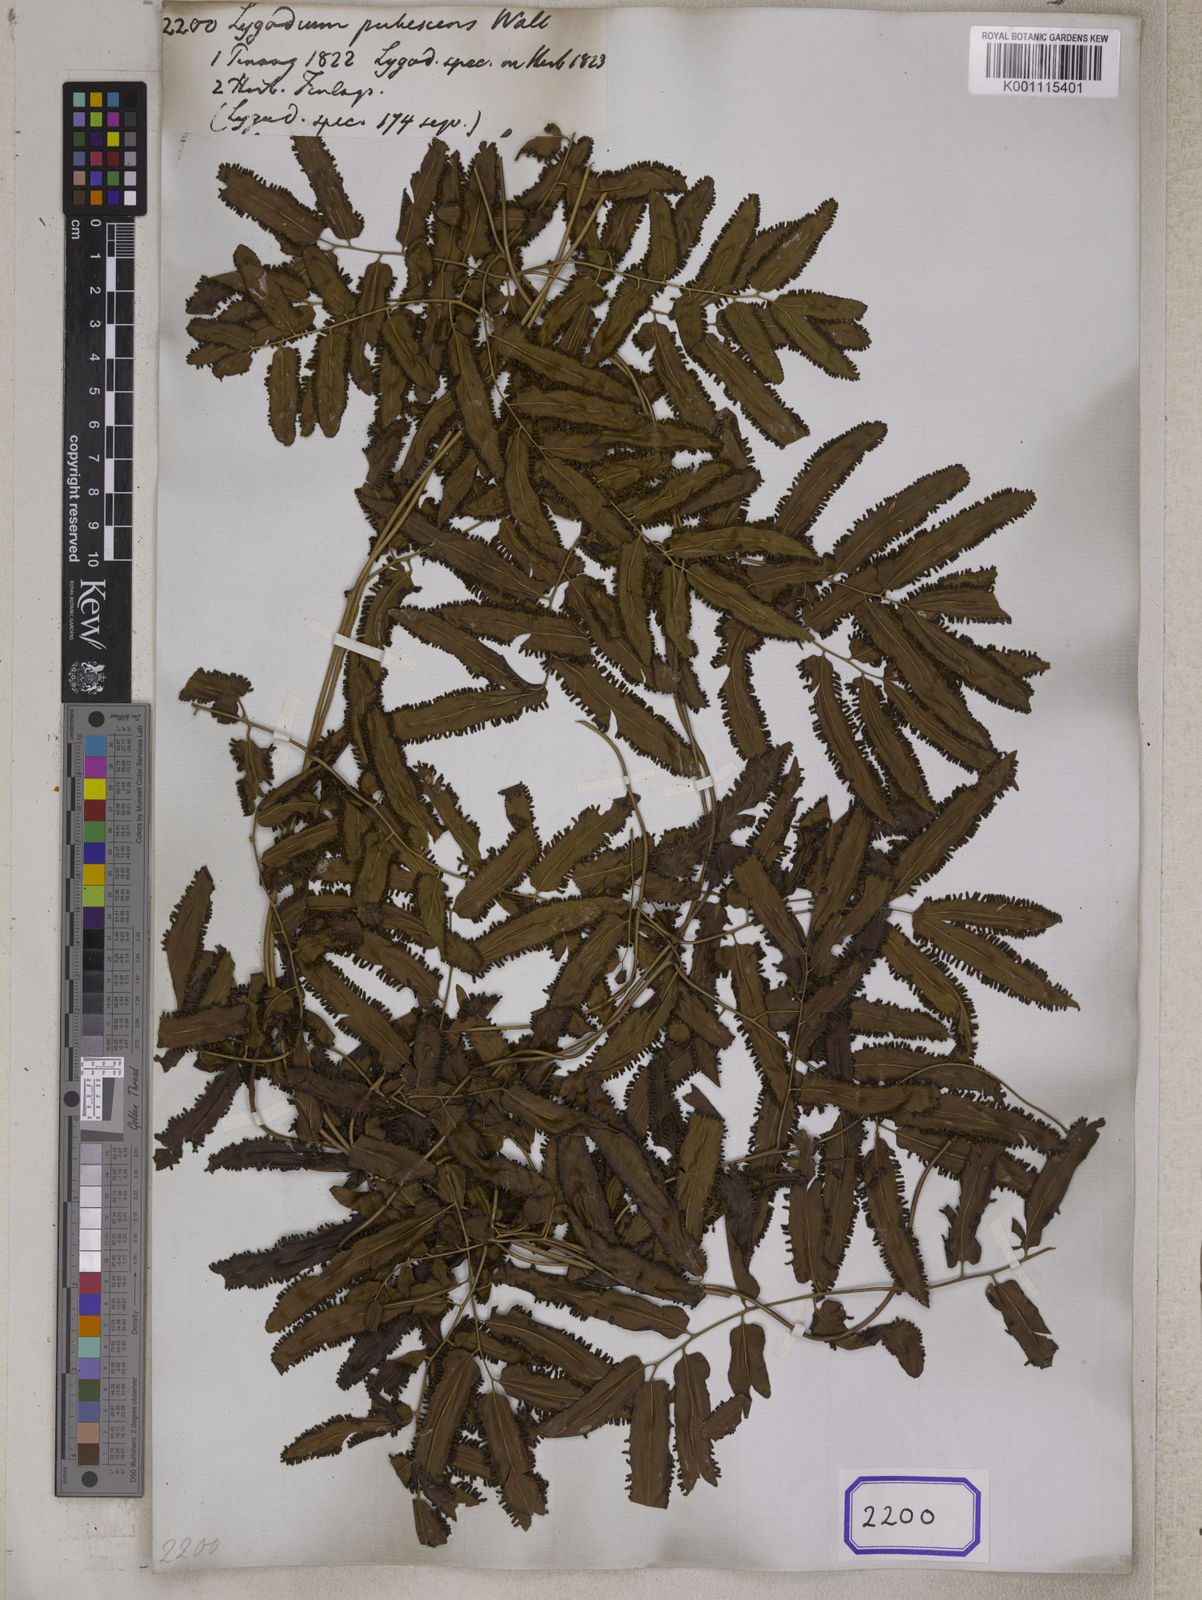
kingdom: Plantae
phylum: Tracheophyta
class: Polypodiopsida
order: Schizaeales
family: Lygodiaceae
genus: Lygodium
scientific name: Lygodium flexuosum
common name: Maidenhair creeper
